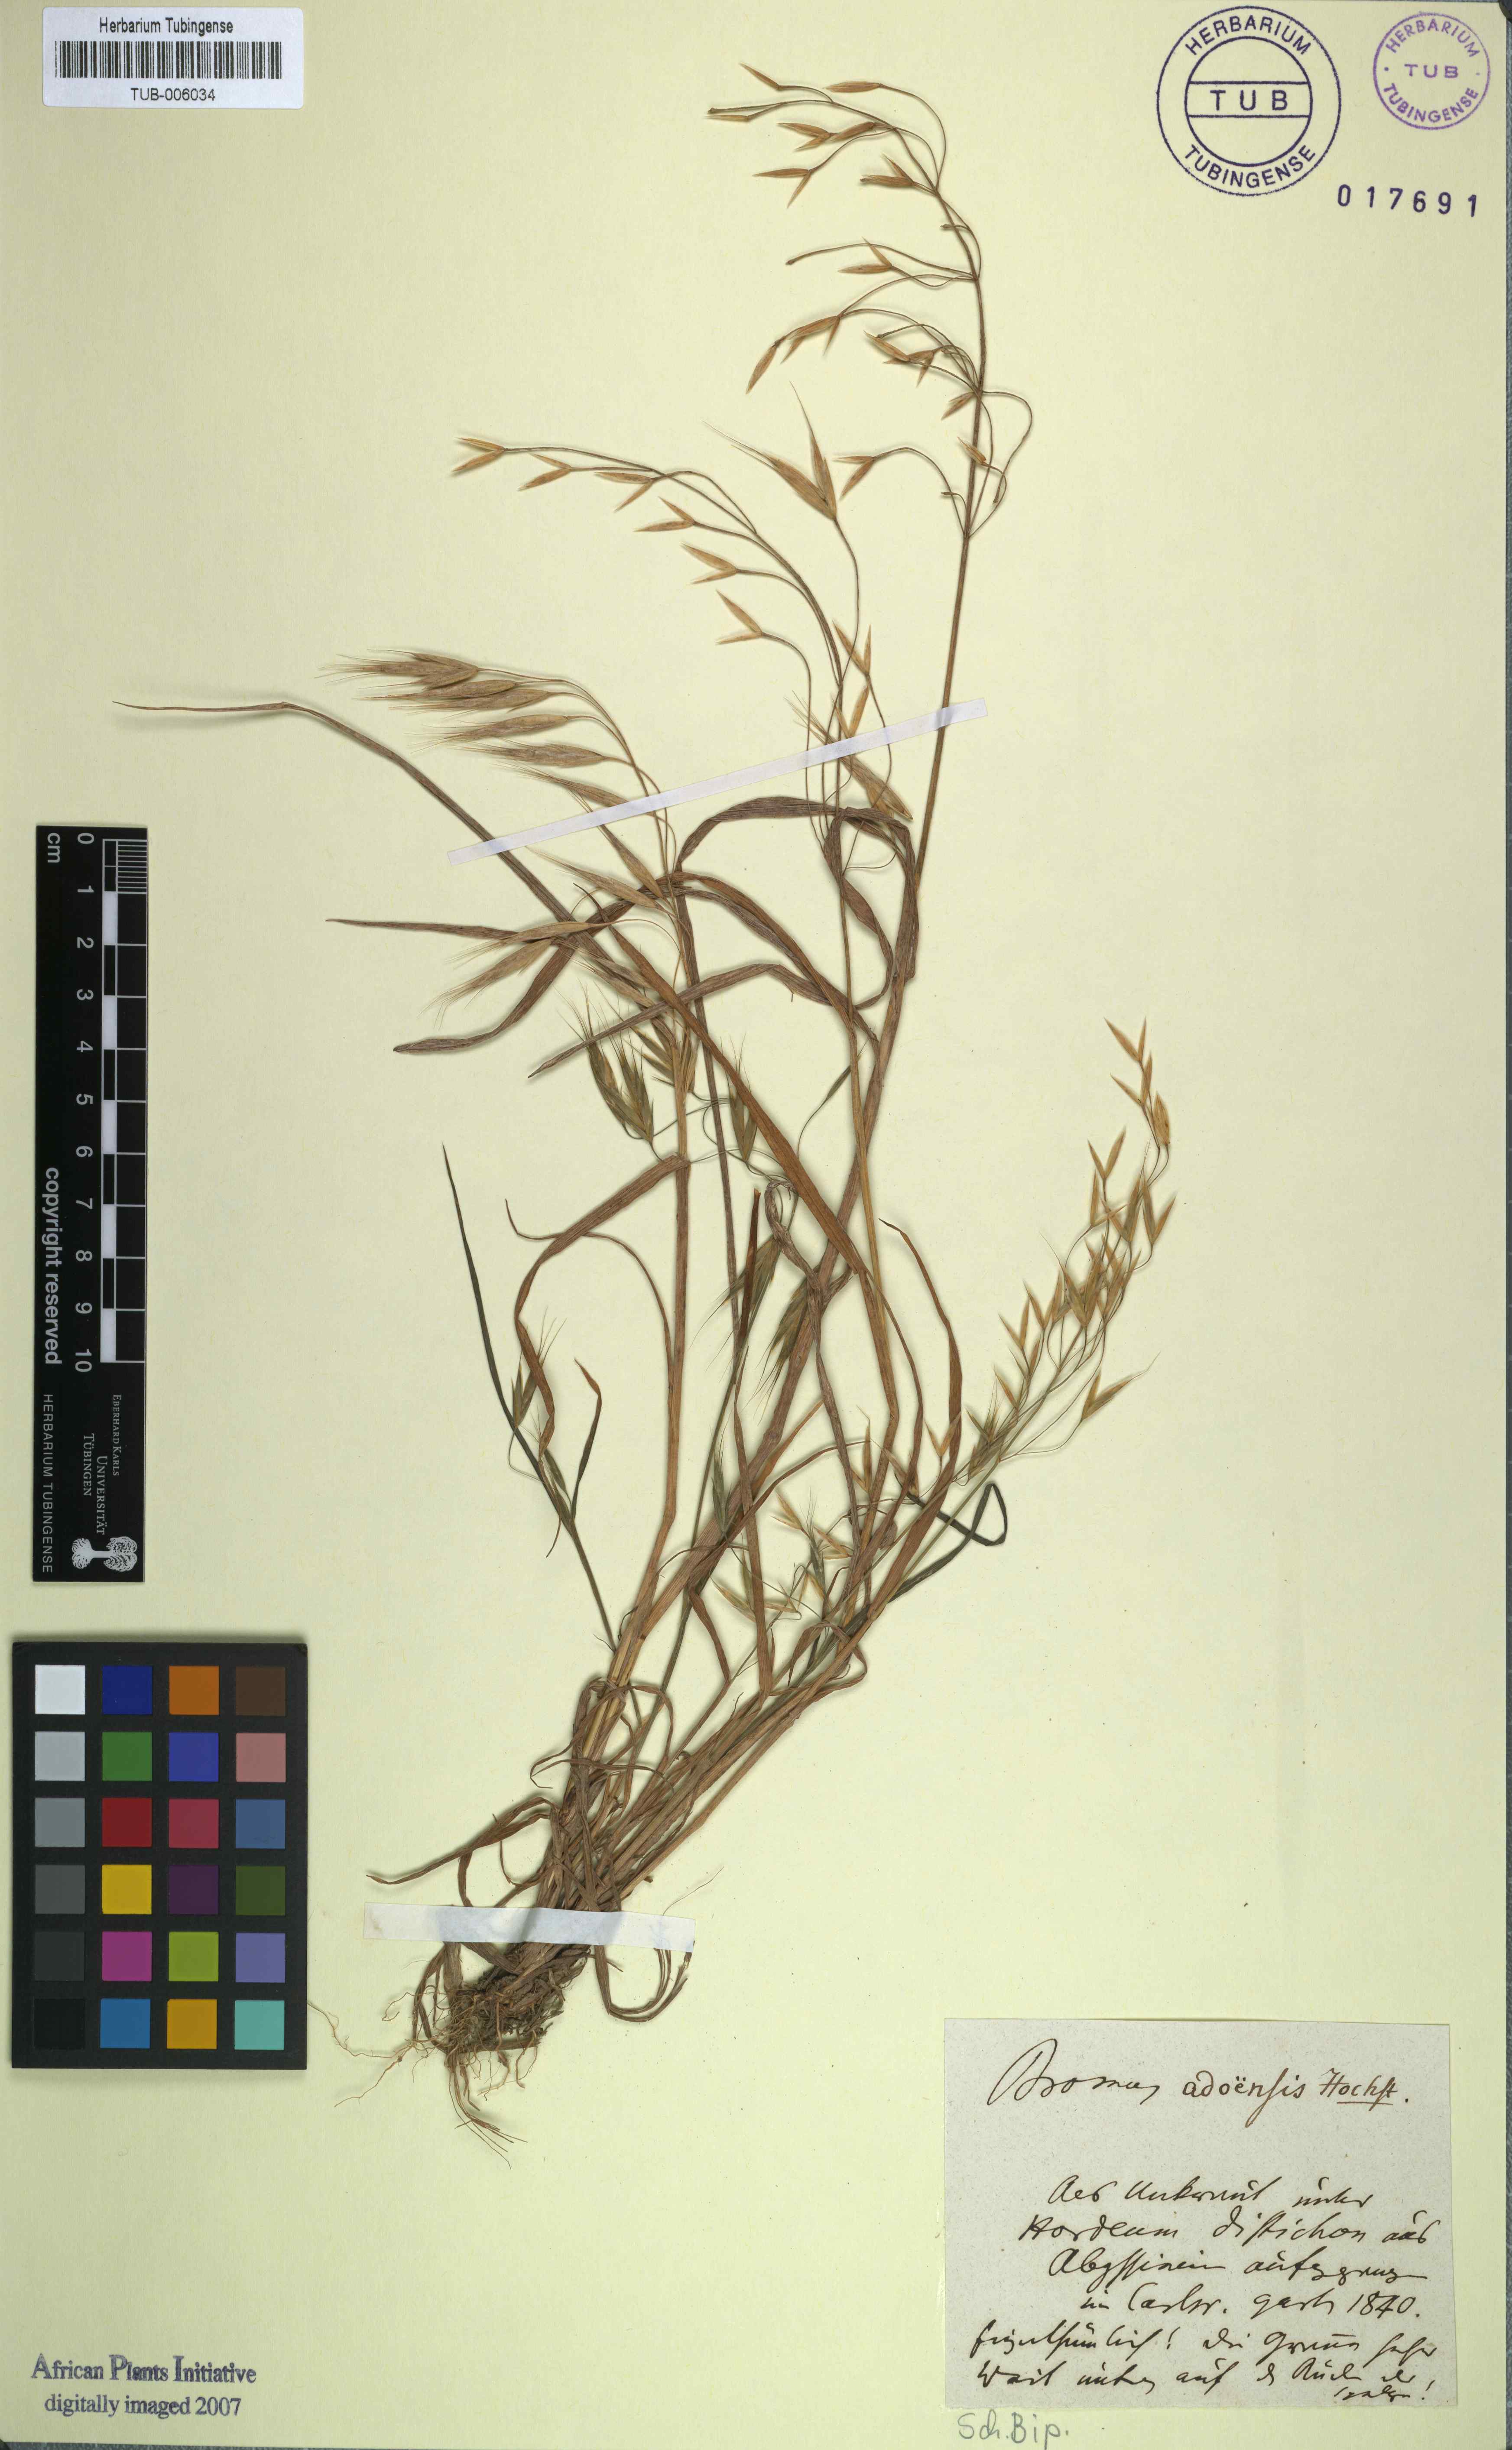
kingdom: Plantae
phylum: Tracheophyta
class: Liliopsida
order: Poales
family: Poaceae
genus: Bromus
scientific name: Bromus pectinatus
